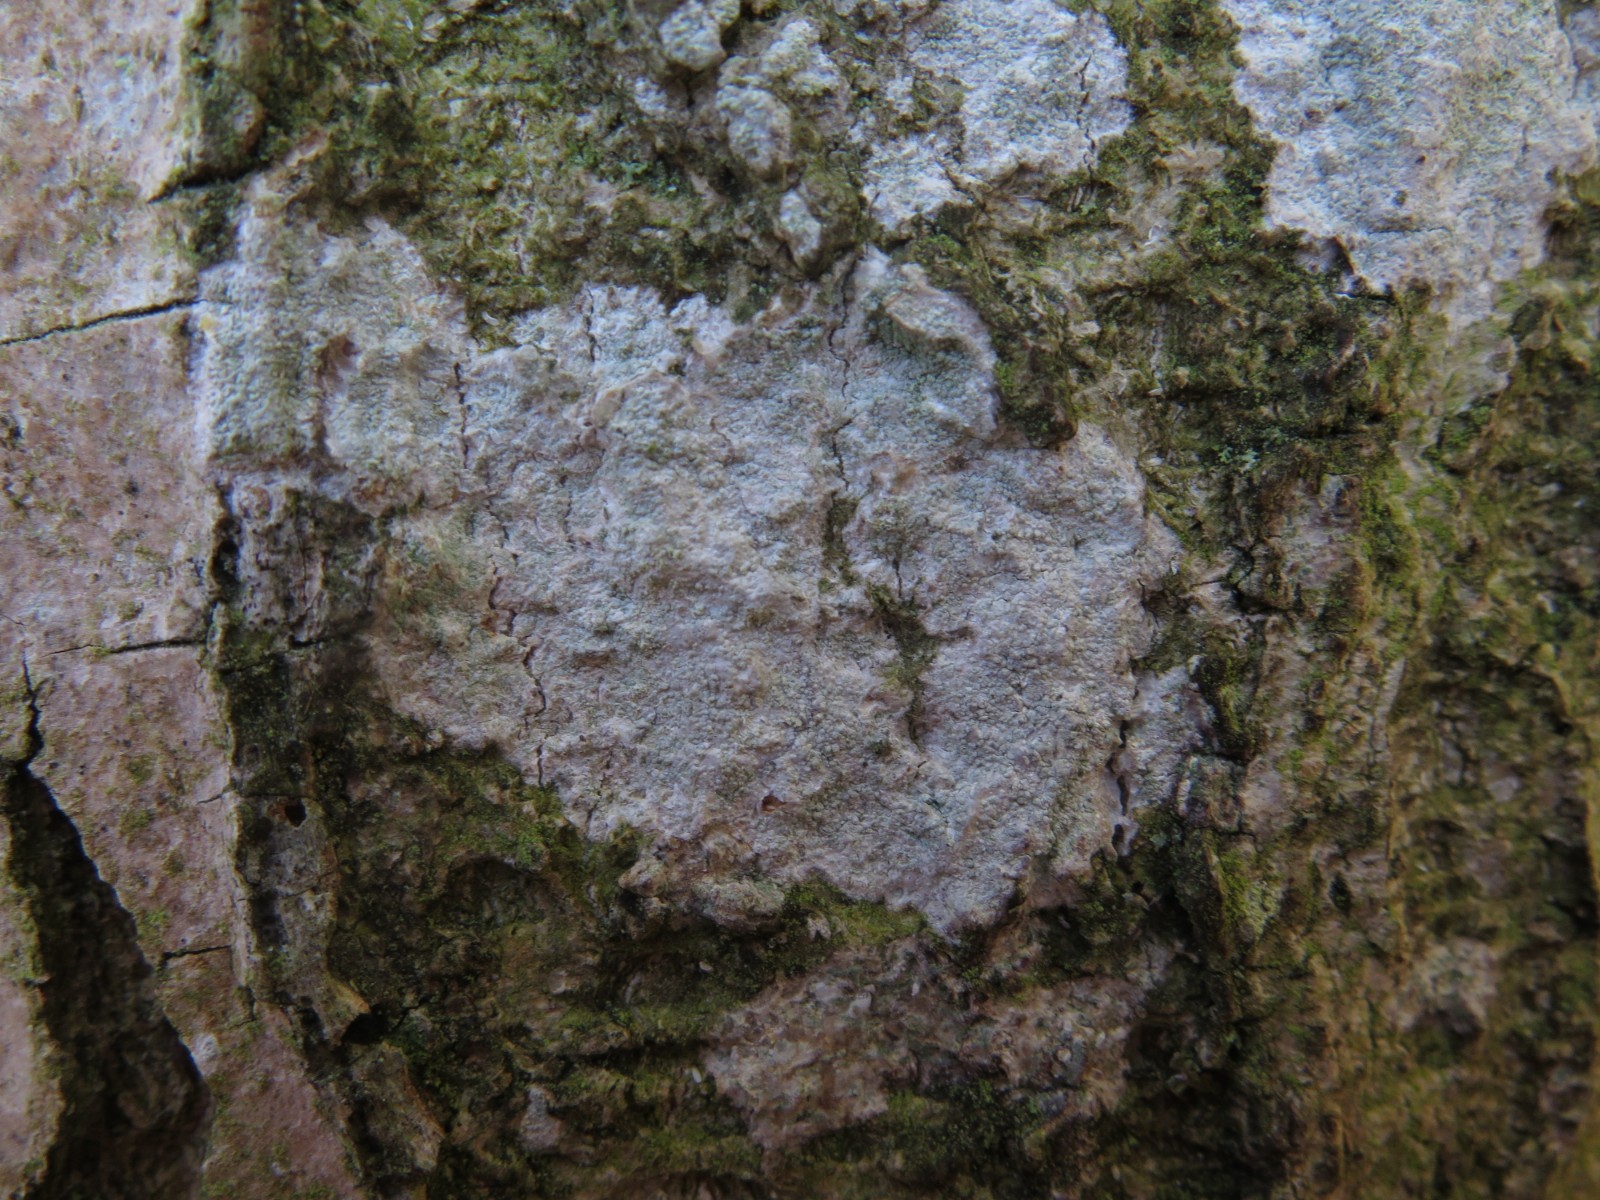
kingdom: Fungi
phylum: Ascomycota
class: Lecanoromycetes
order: Ostropales
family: Phlyctidaceae
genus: Phlyctis
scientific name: Phlyctis argena
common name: almindelig sølvlav
